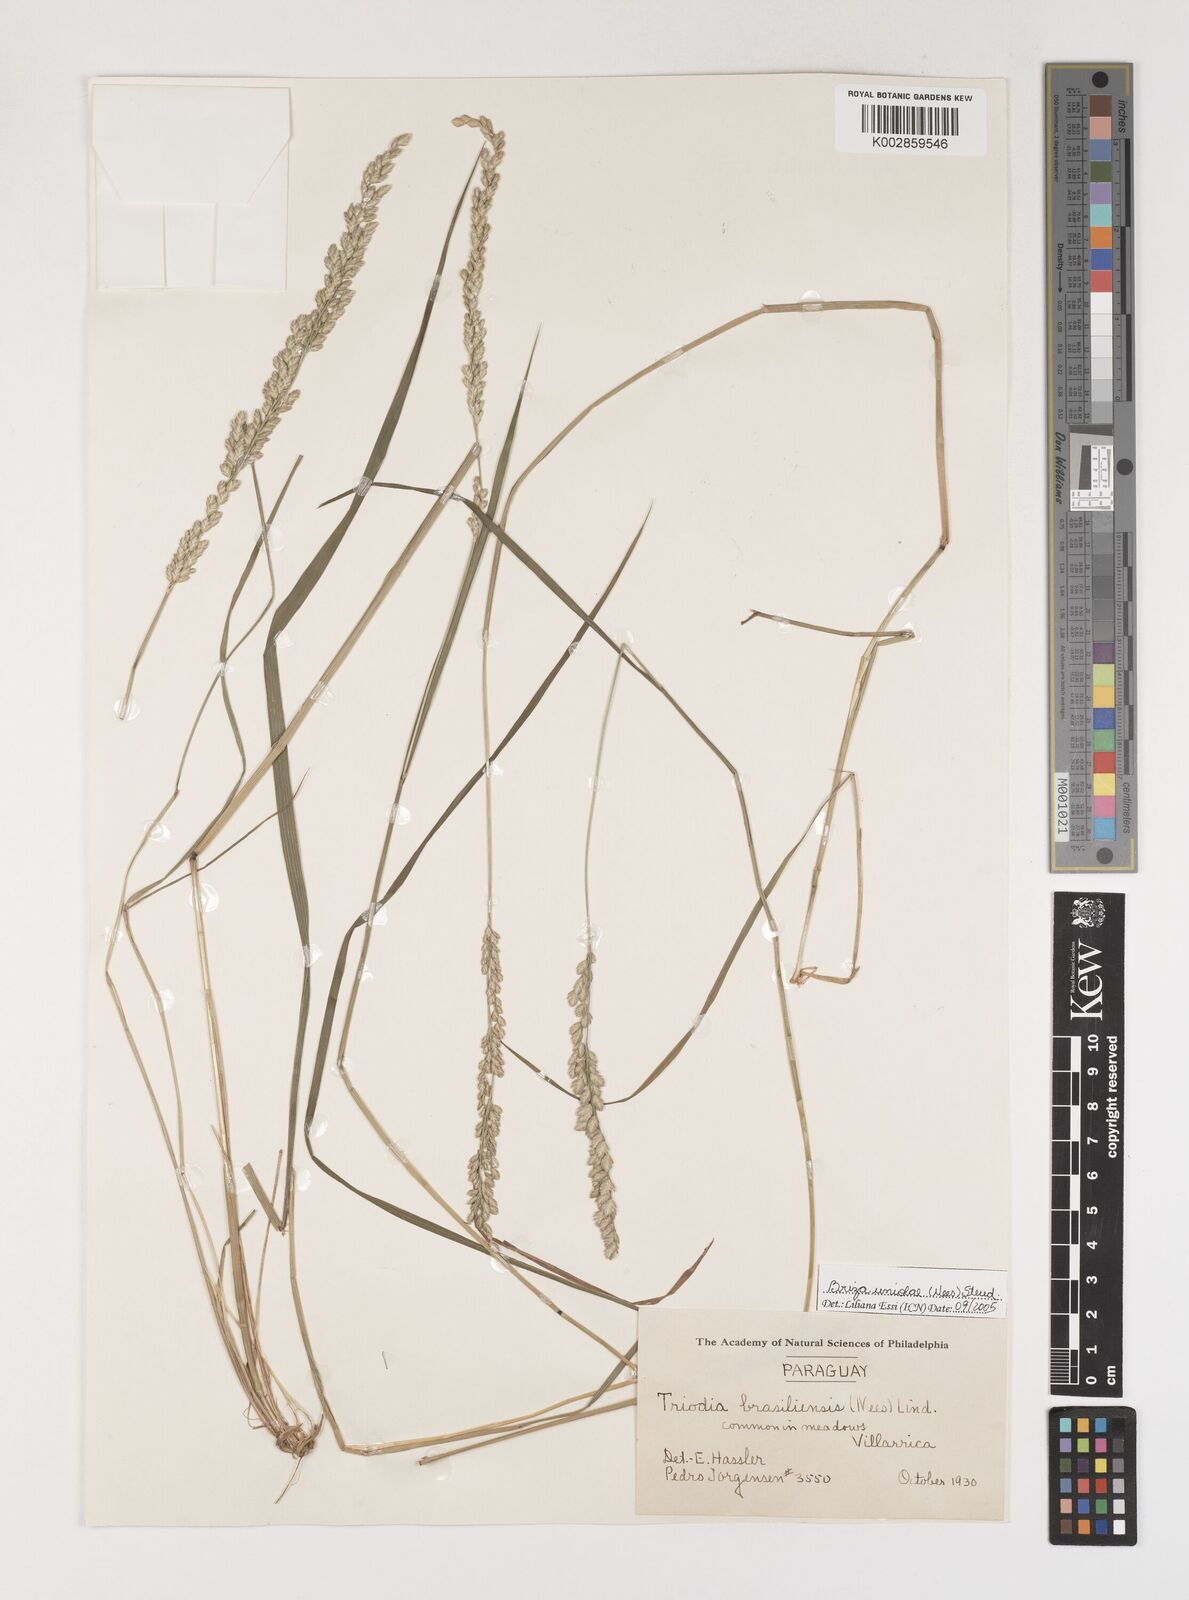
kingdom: Plantae
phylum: Tracheophyta
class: Liliopsida
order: Poales
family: Poaceae
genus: Poidium
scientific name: Poidium uniolae
